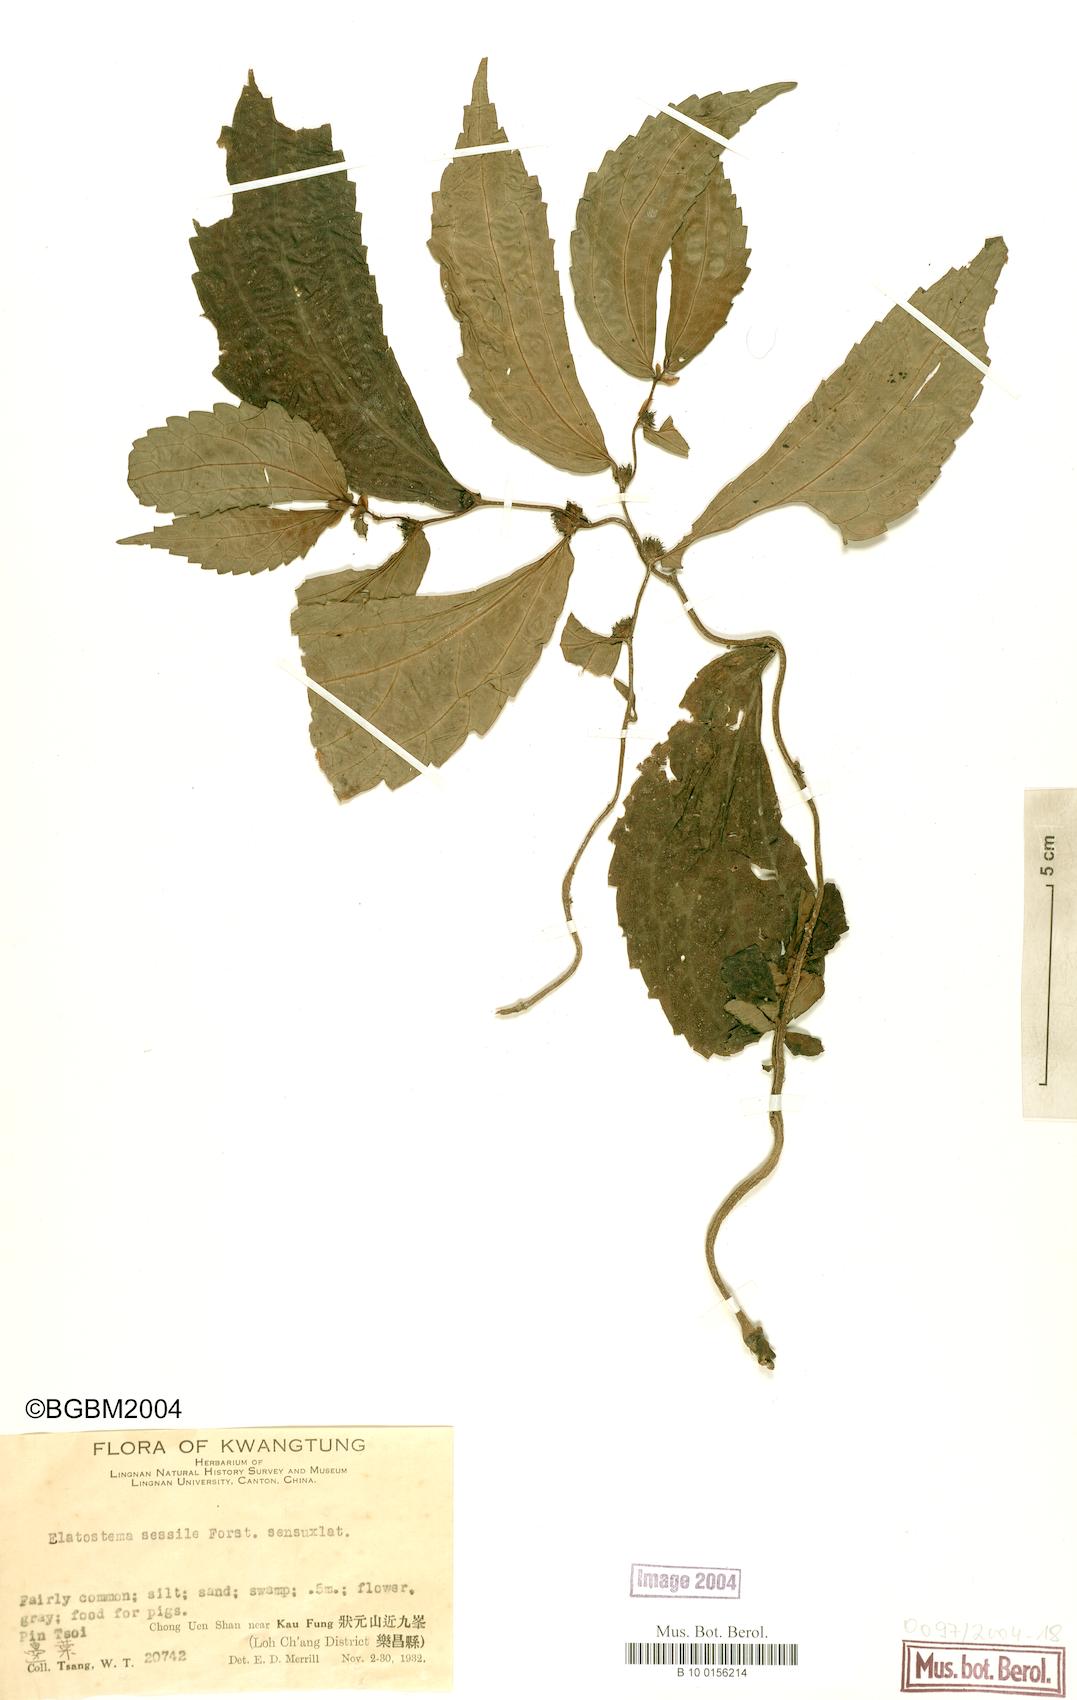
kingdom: Plantae
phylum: Tracheophyta
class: Magnoliopsida
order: Rosales
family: Urticaceae
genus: Elatostema
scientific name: Elatostema sessile
